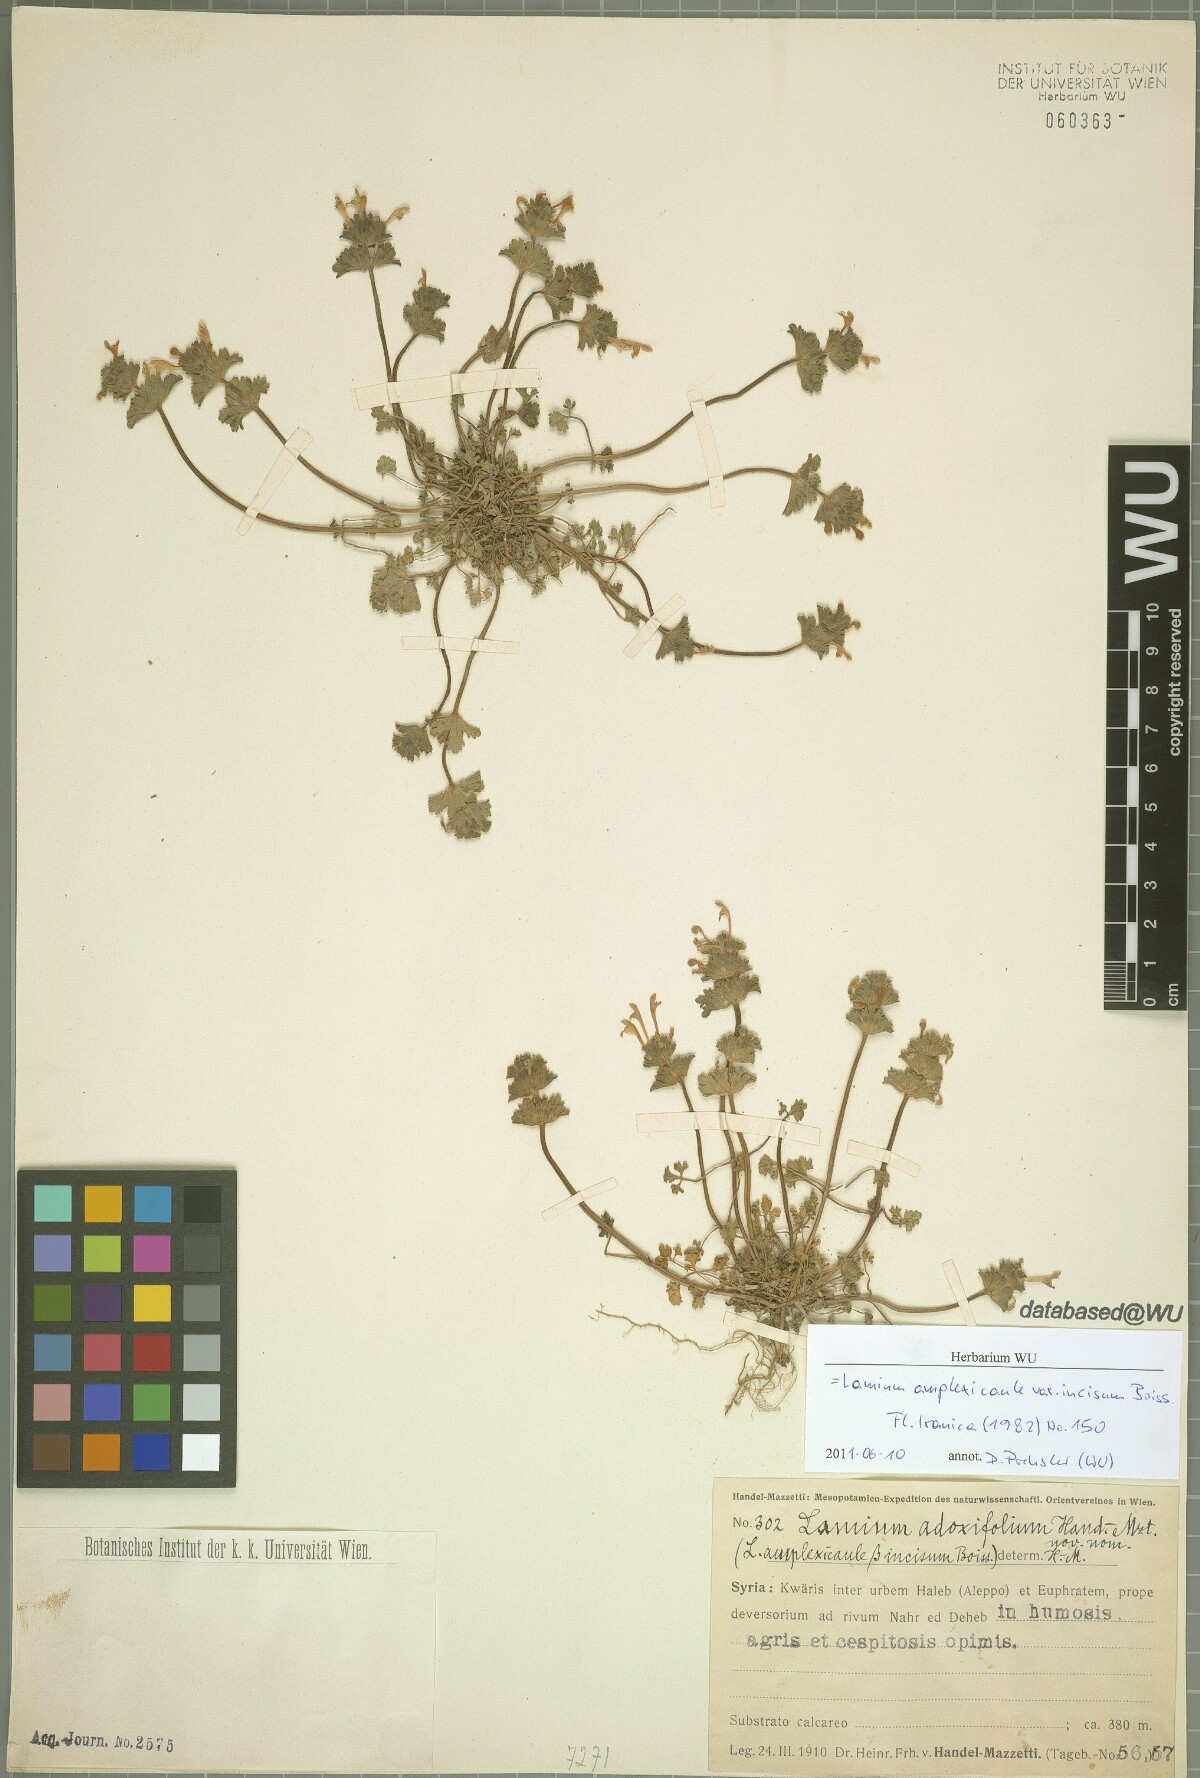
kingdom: Plantae
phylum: Tracheophyta
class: Magnoliopsida
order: Lamiales
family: Lamiaceae
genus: Lamium
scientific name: Lamium amplexicaule
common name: Henbit dead-nettle
